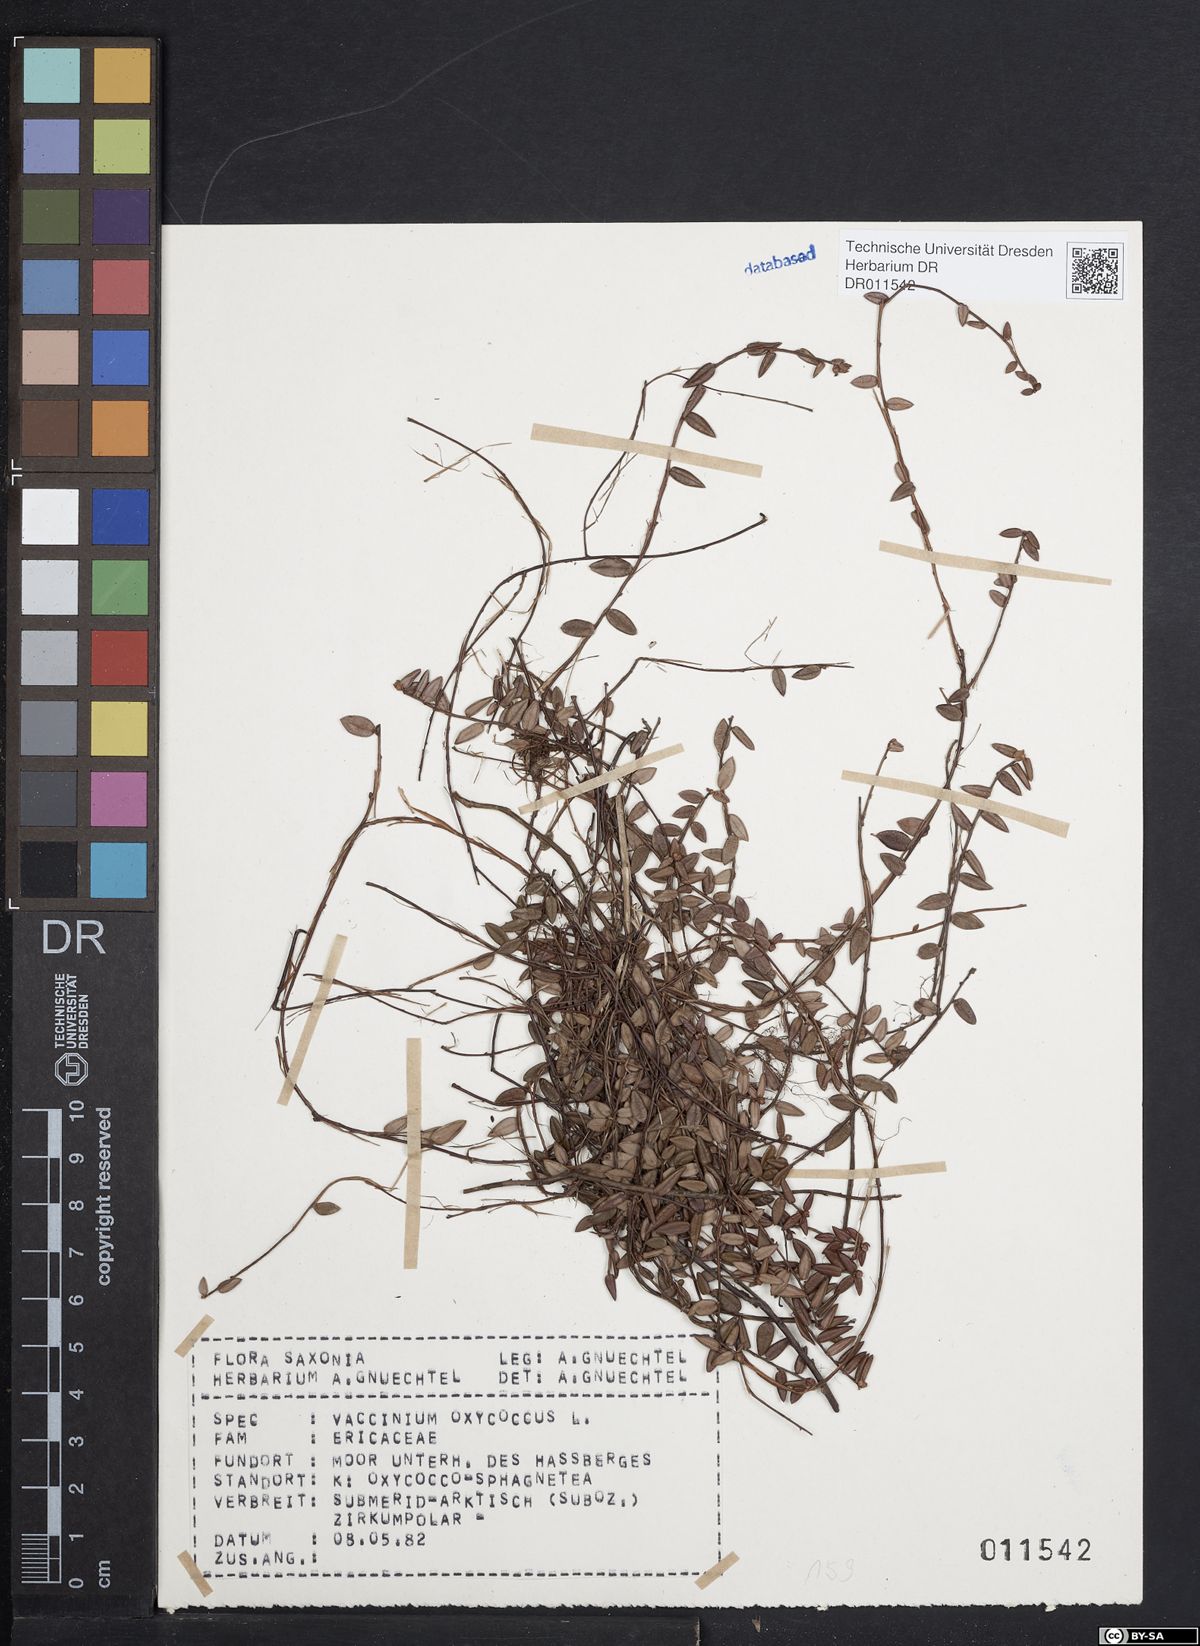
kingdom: Plantae
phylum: Tracheophyta
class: Magnoliopsida
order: Ericales
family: Ericaceae
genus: Vaccinium
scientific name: Vaccinium oxycoccos
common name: Cranberry
